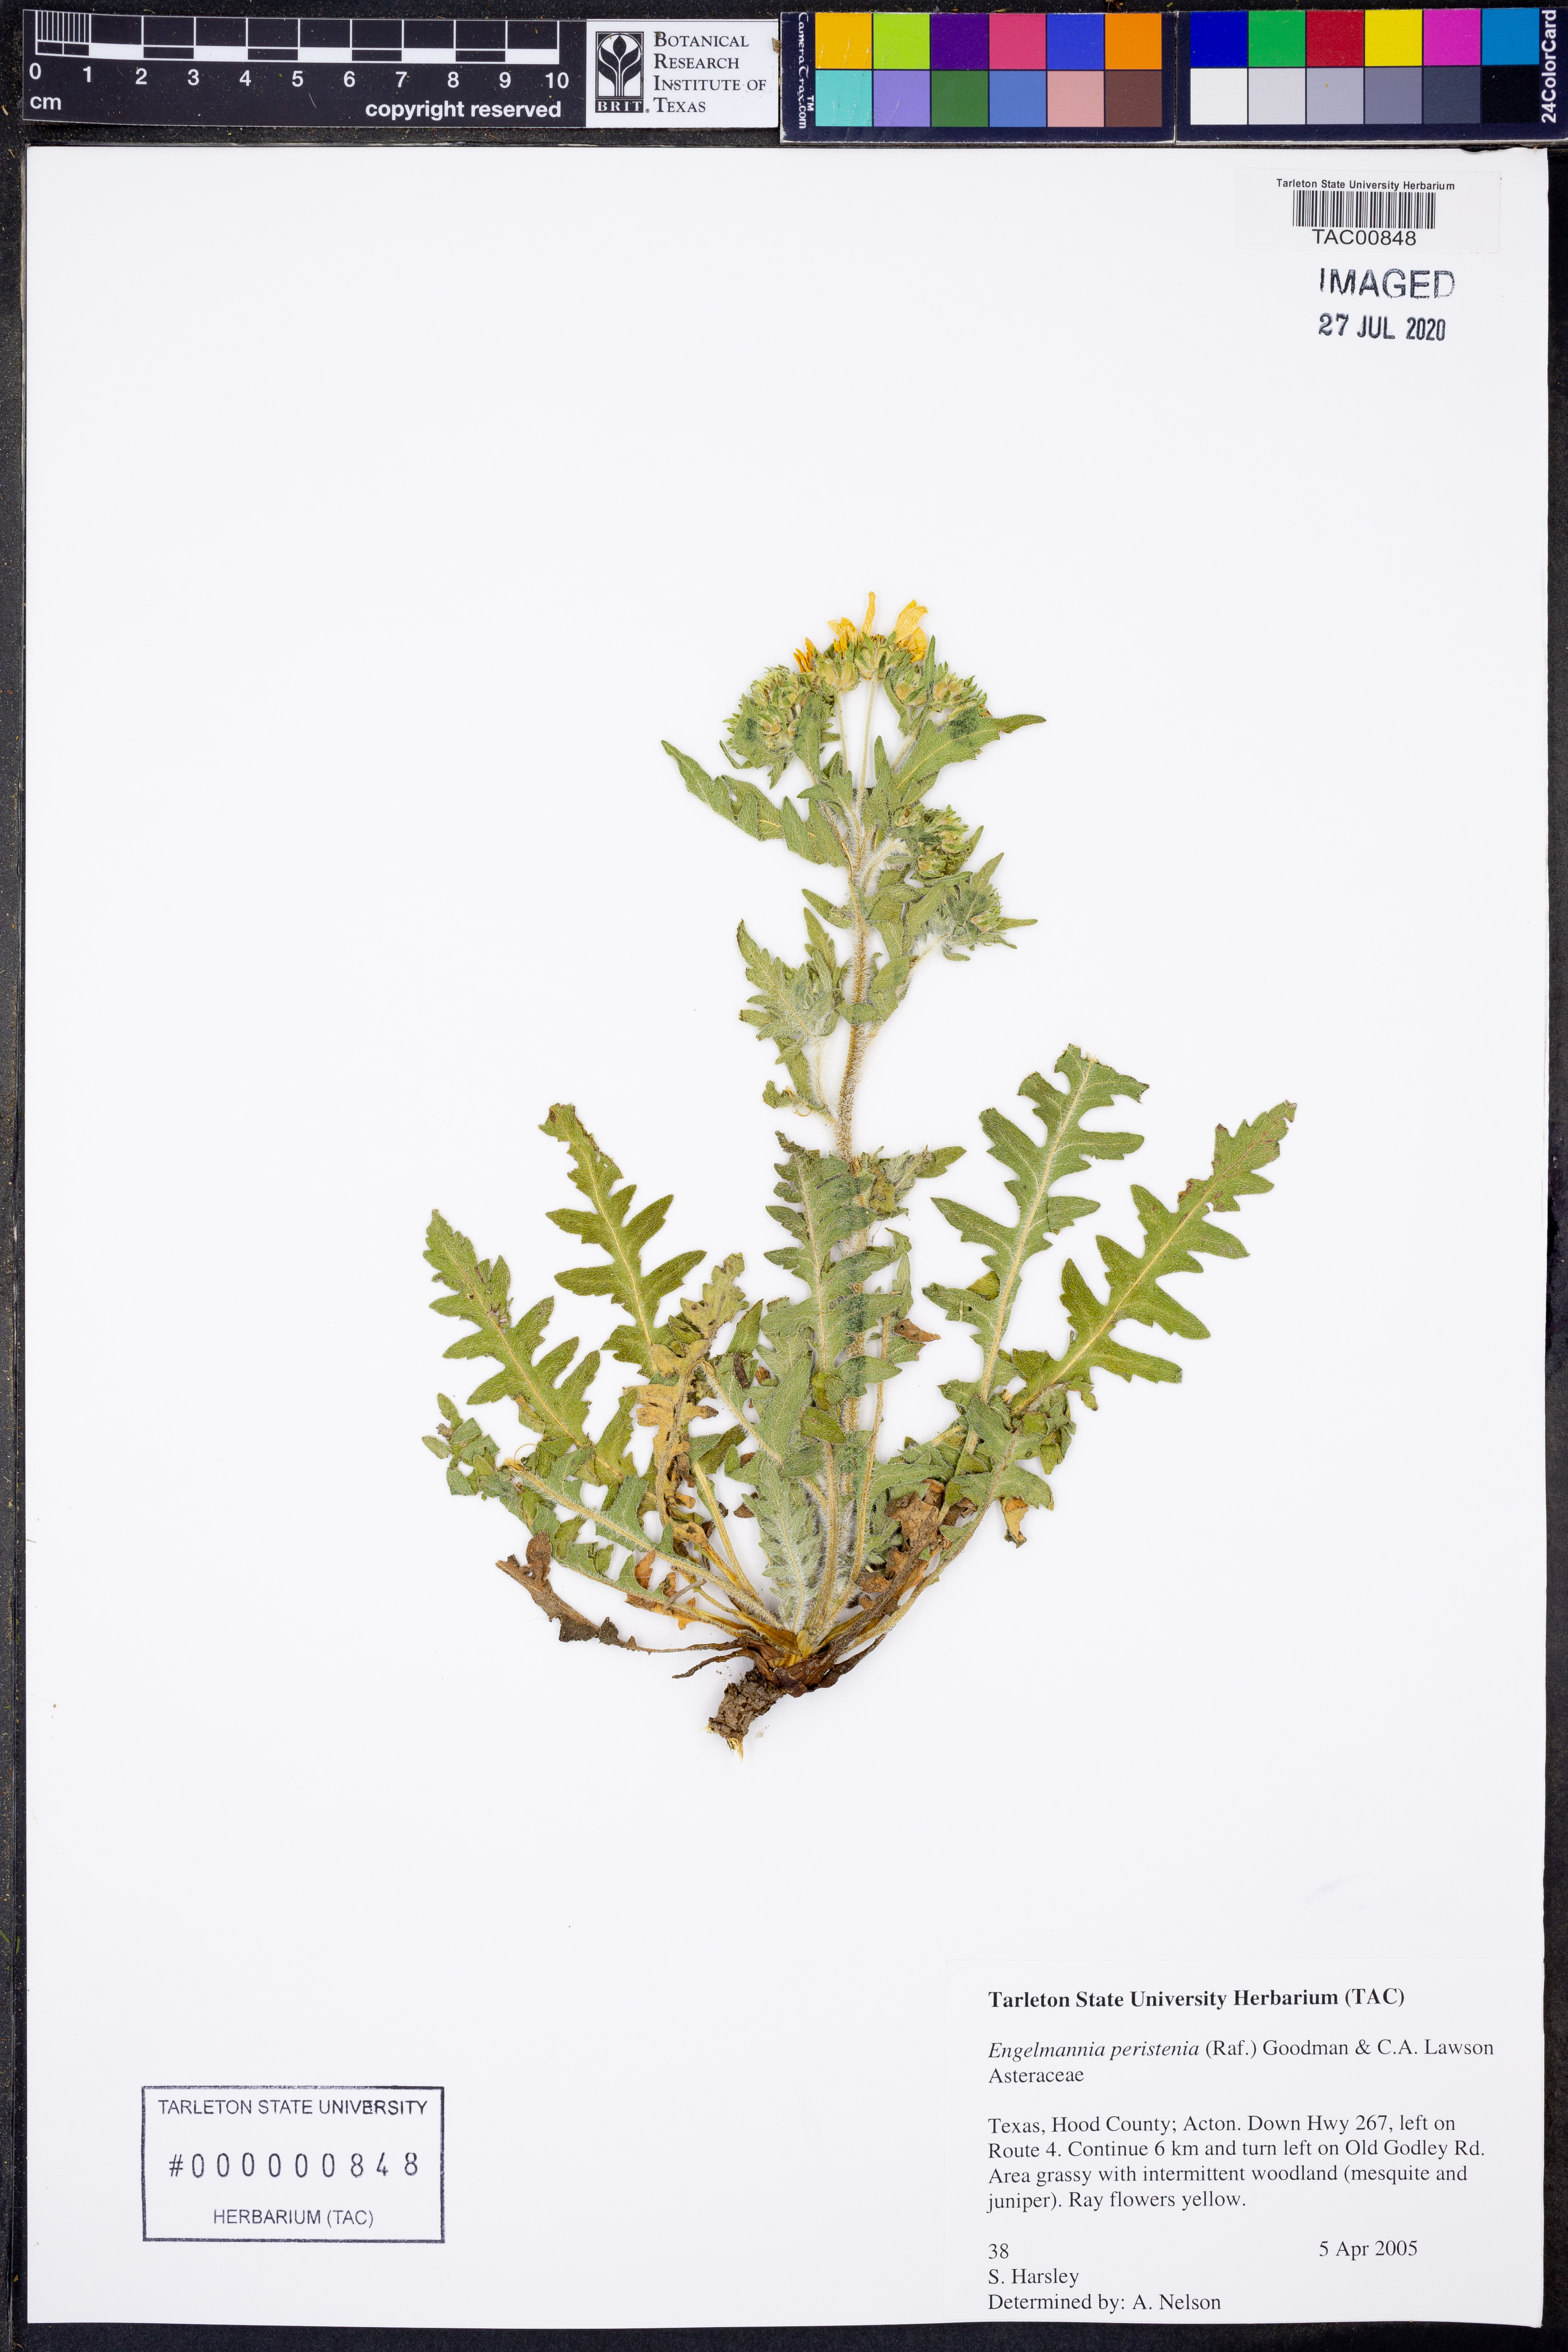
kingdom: Plantae
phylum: Tracheophyta
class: Magnoliopsida
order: Asterales
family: Asteraceae
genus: Engelmannia
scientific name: Engelmannia peristenia
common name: Engelmann's daisy
